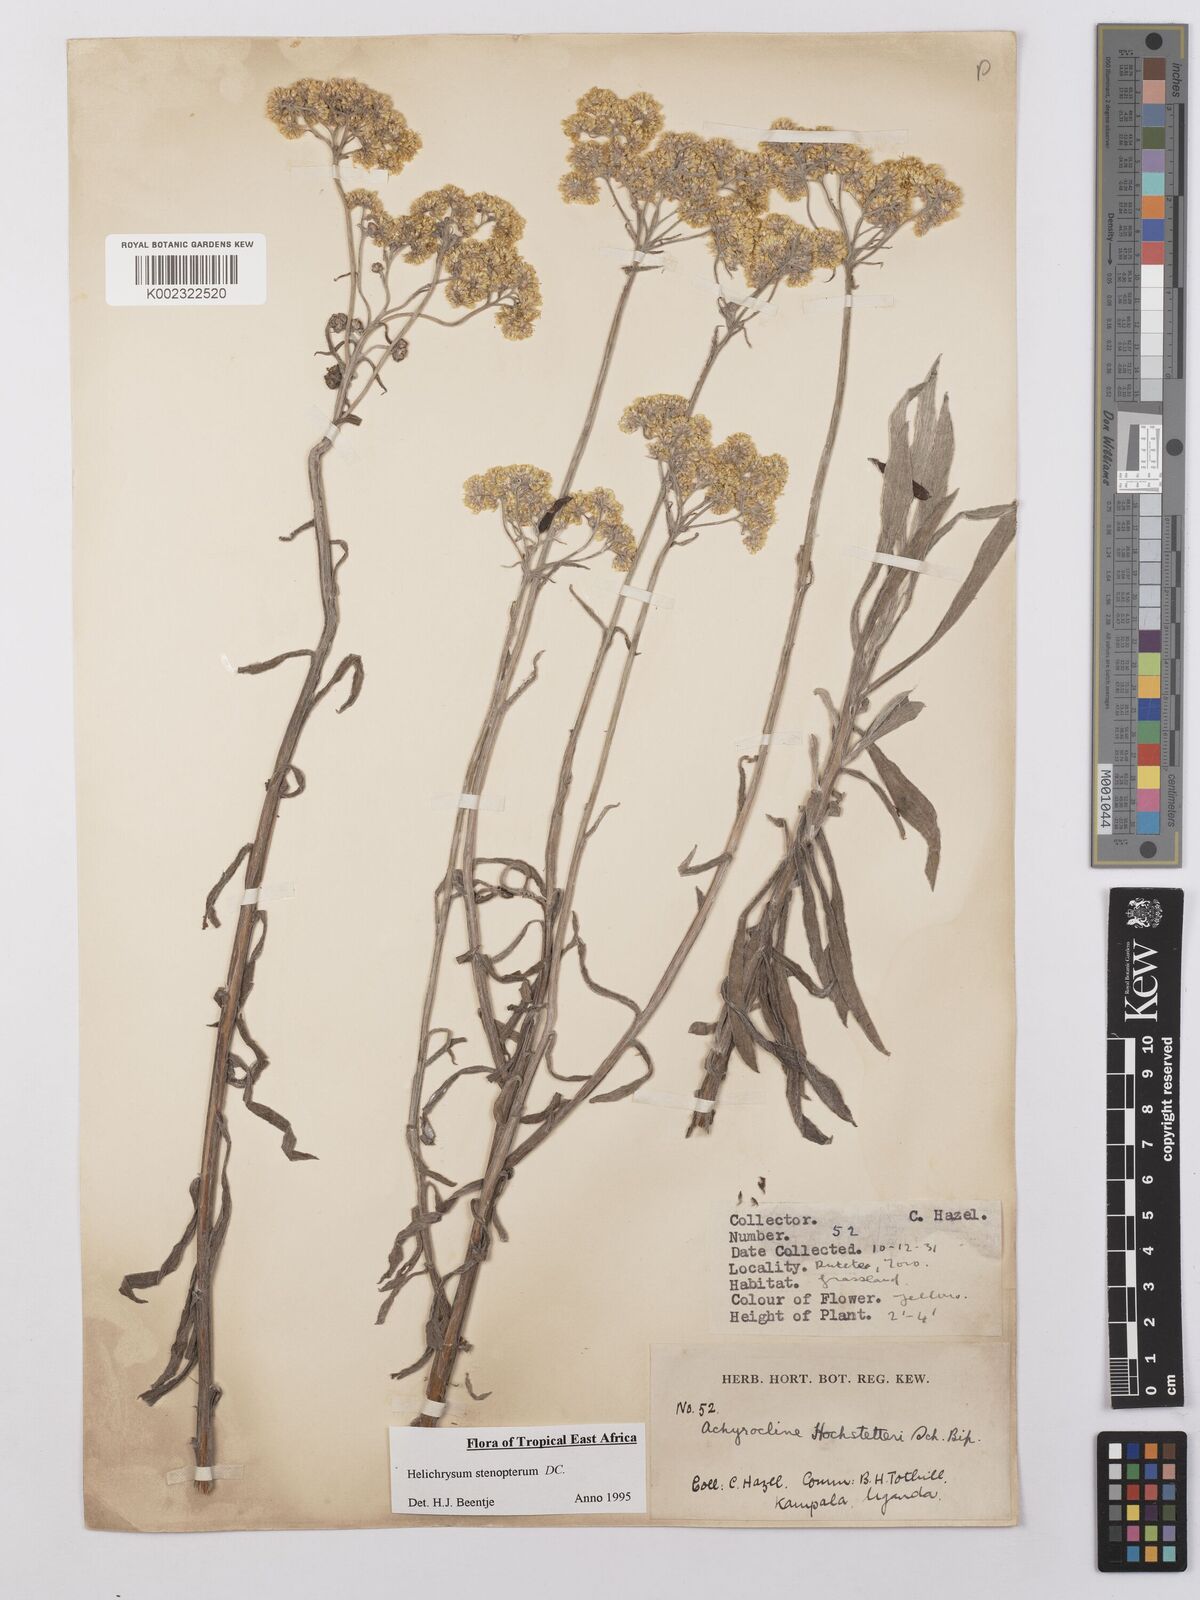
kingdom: Plantae
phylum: Tracheophyta
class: Magnoliopsida
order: Asterales
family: Asteraceae
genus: Helichrysum
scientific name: Helichrysum stenopterum
